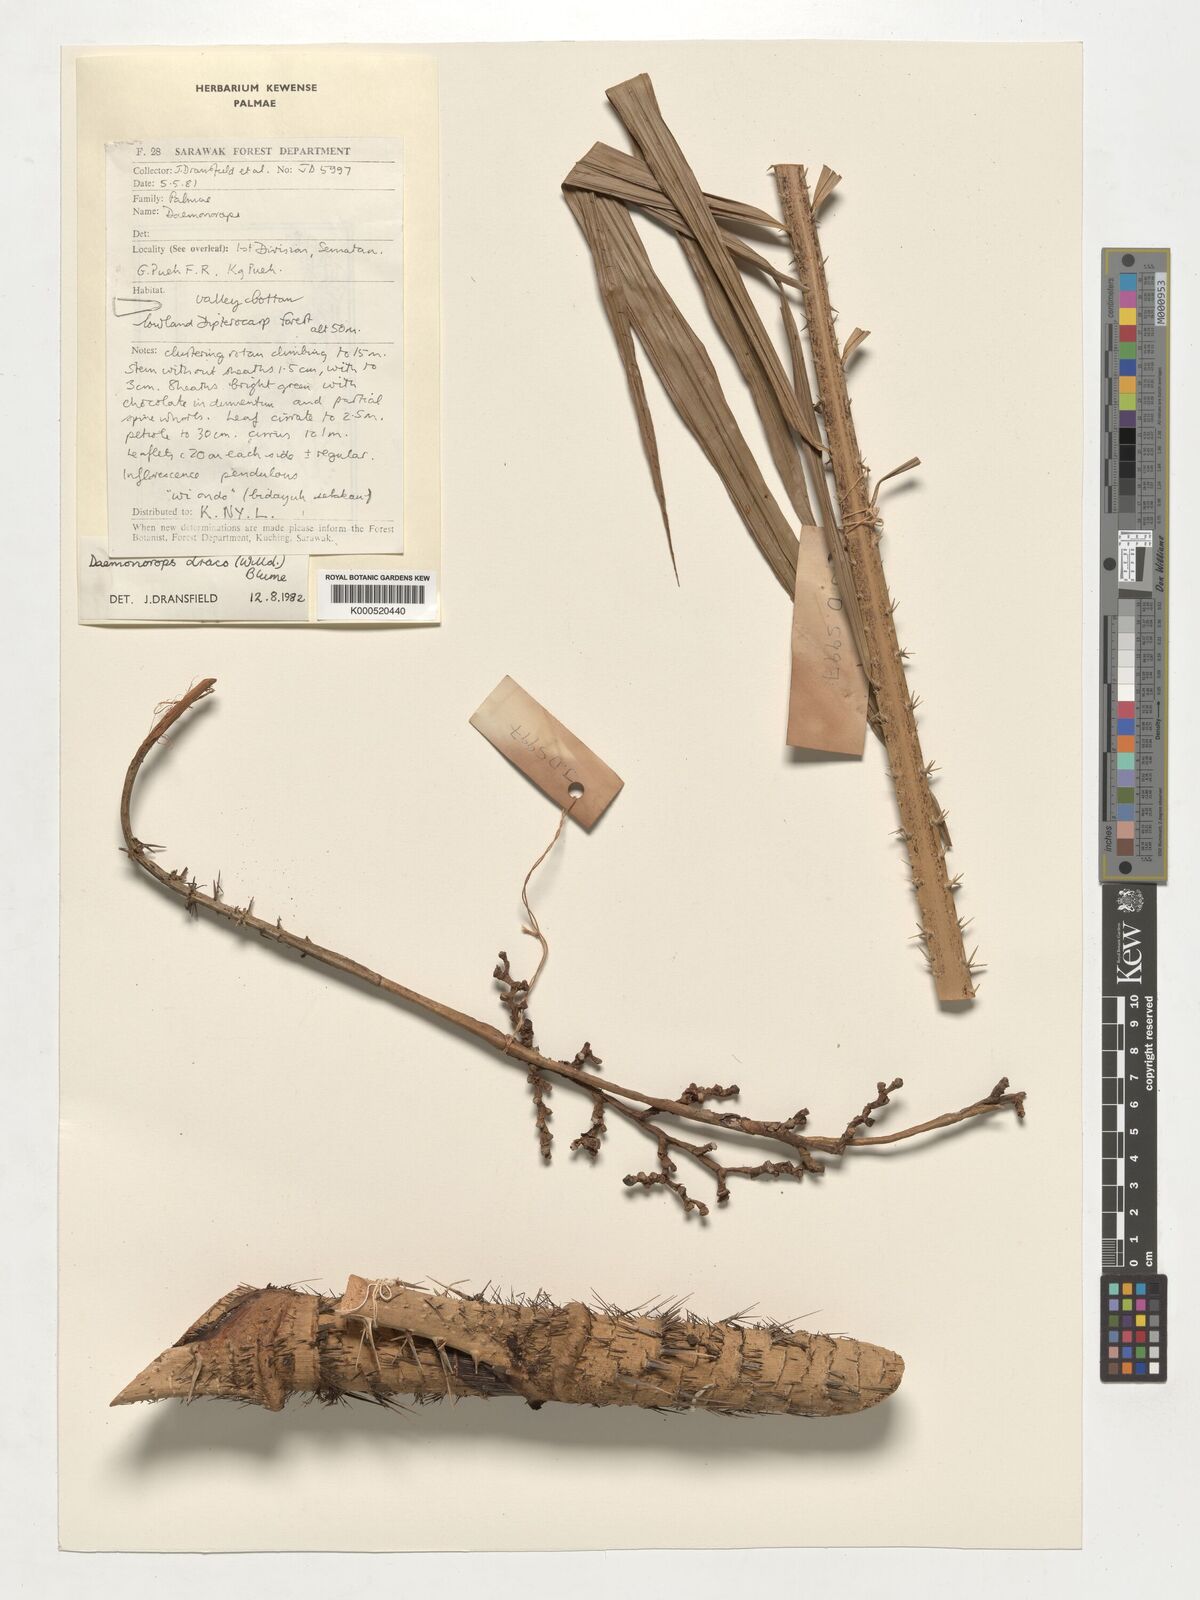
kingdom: Plantae
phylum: Tracheophyta
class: Liliopsida
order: Arecales
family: Arecaceae
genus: Calamus
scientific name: Calamus draco
